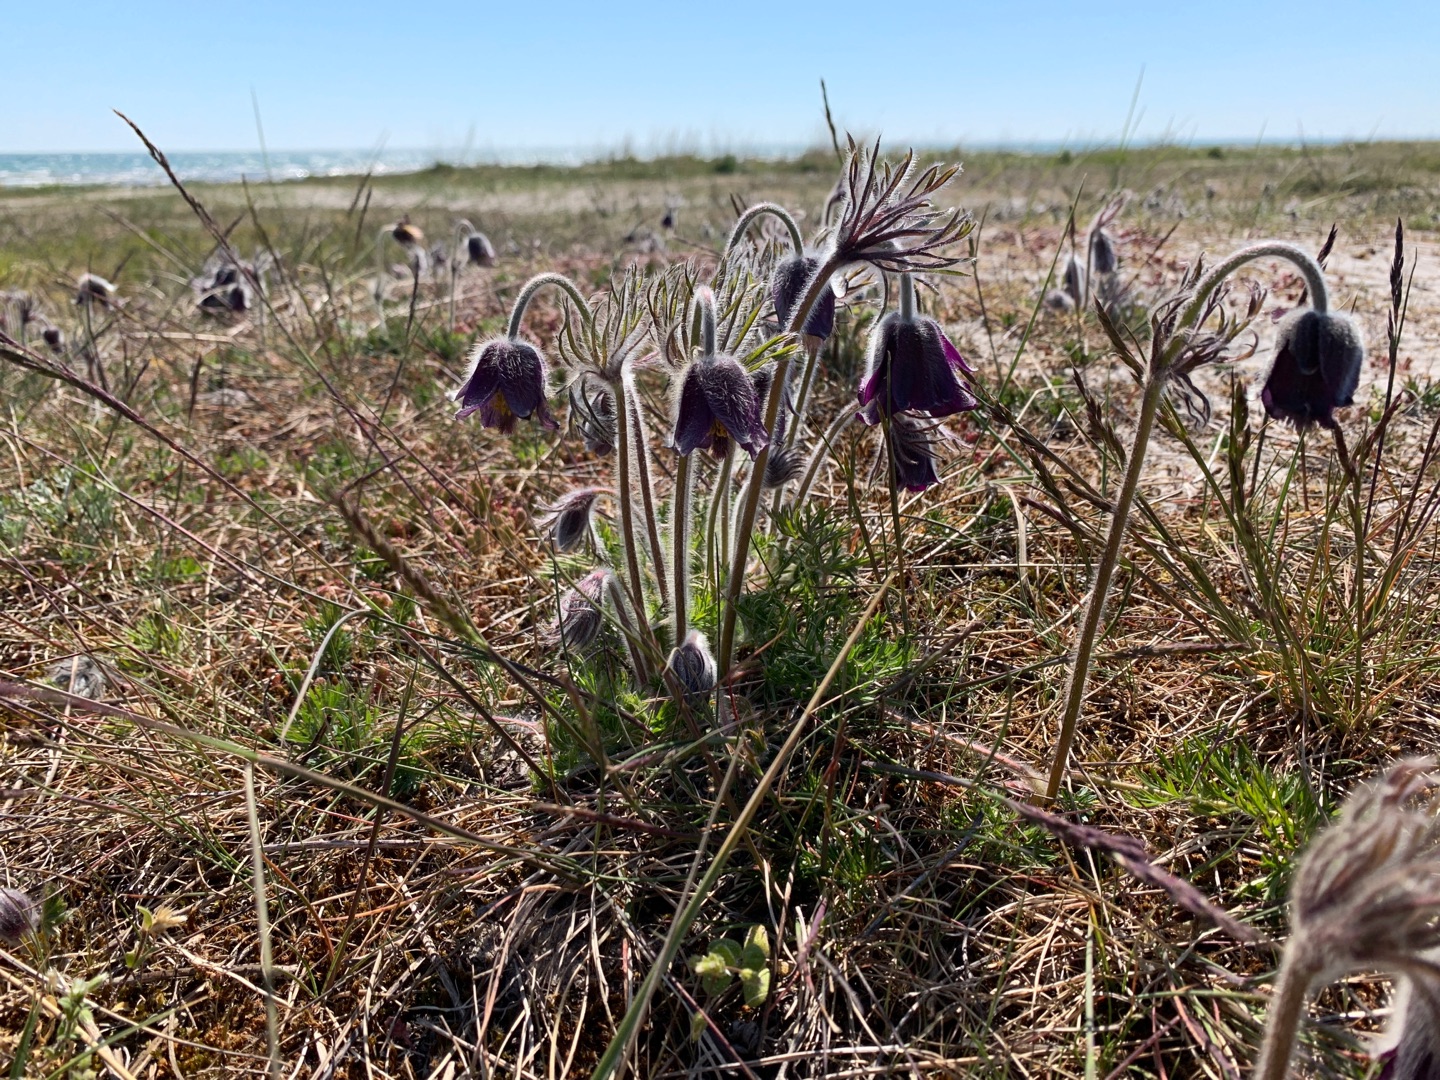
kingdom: Plantae
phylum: Tracheophyta
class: Magnoliopsida
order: Ranunculales
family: Ranunculaceae
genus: Pulsatilla
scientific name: Pulsatilla pratensis
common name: Nikkende kobjælde
